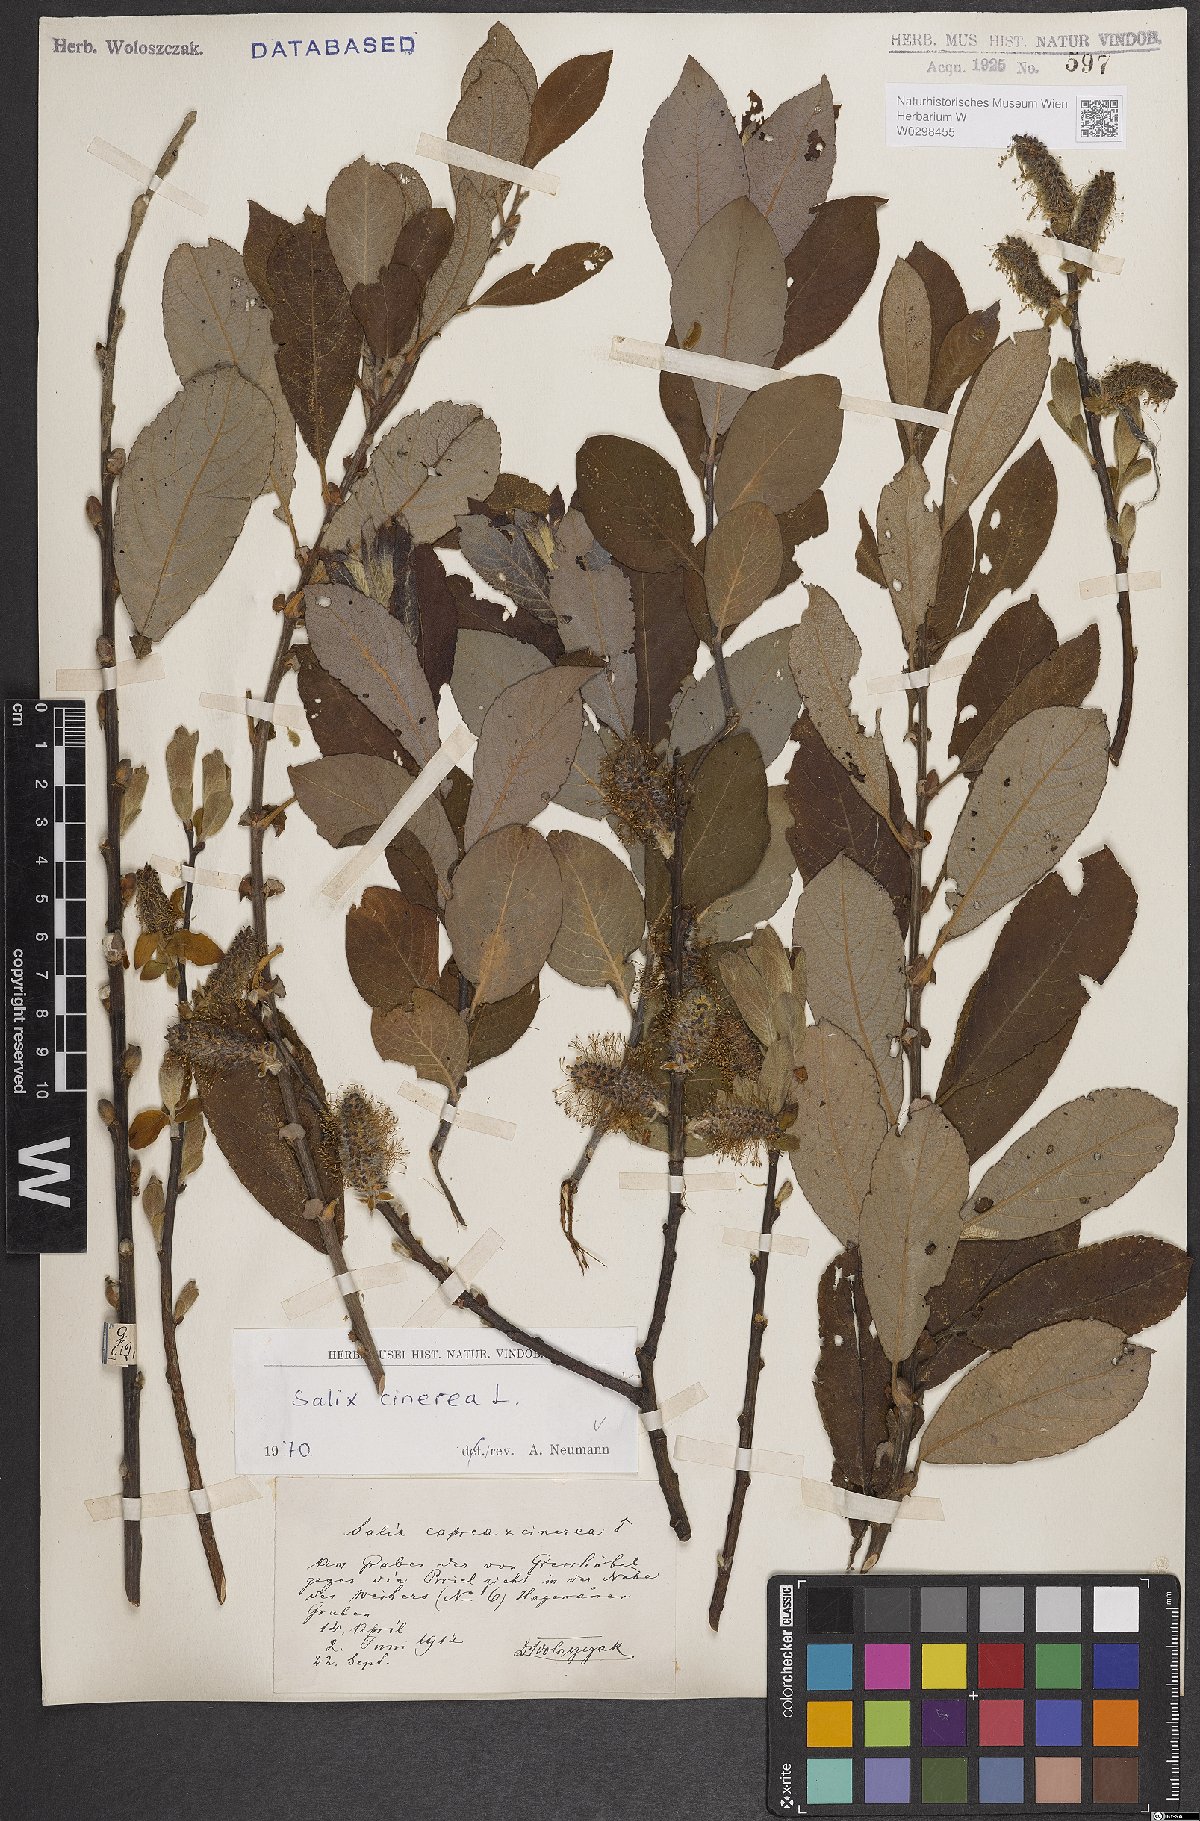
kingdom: Plantae
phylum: Tracheophyta
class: Magnoliopsida
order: Malpighiales
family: Salicaceae
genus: Salix
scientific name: Salix cinerea
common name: Common sallow
